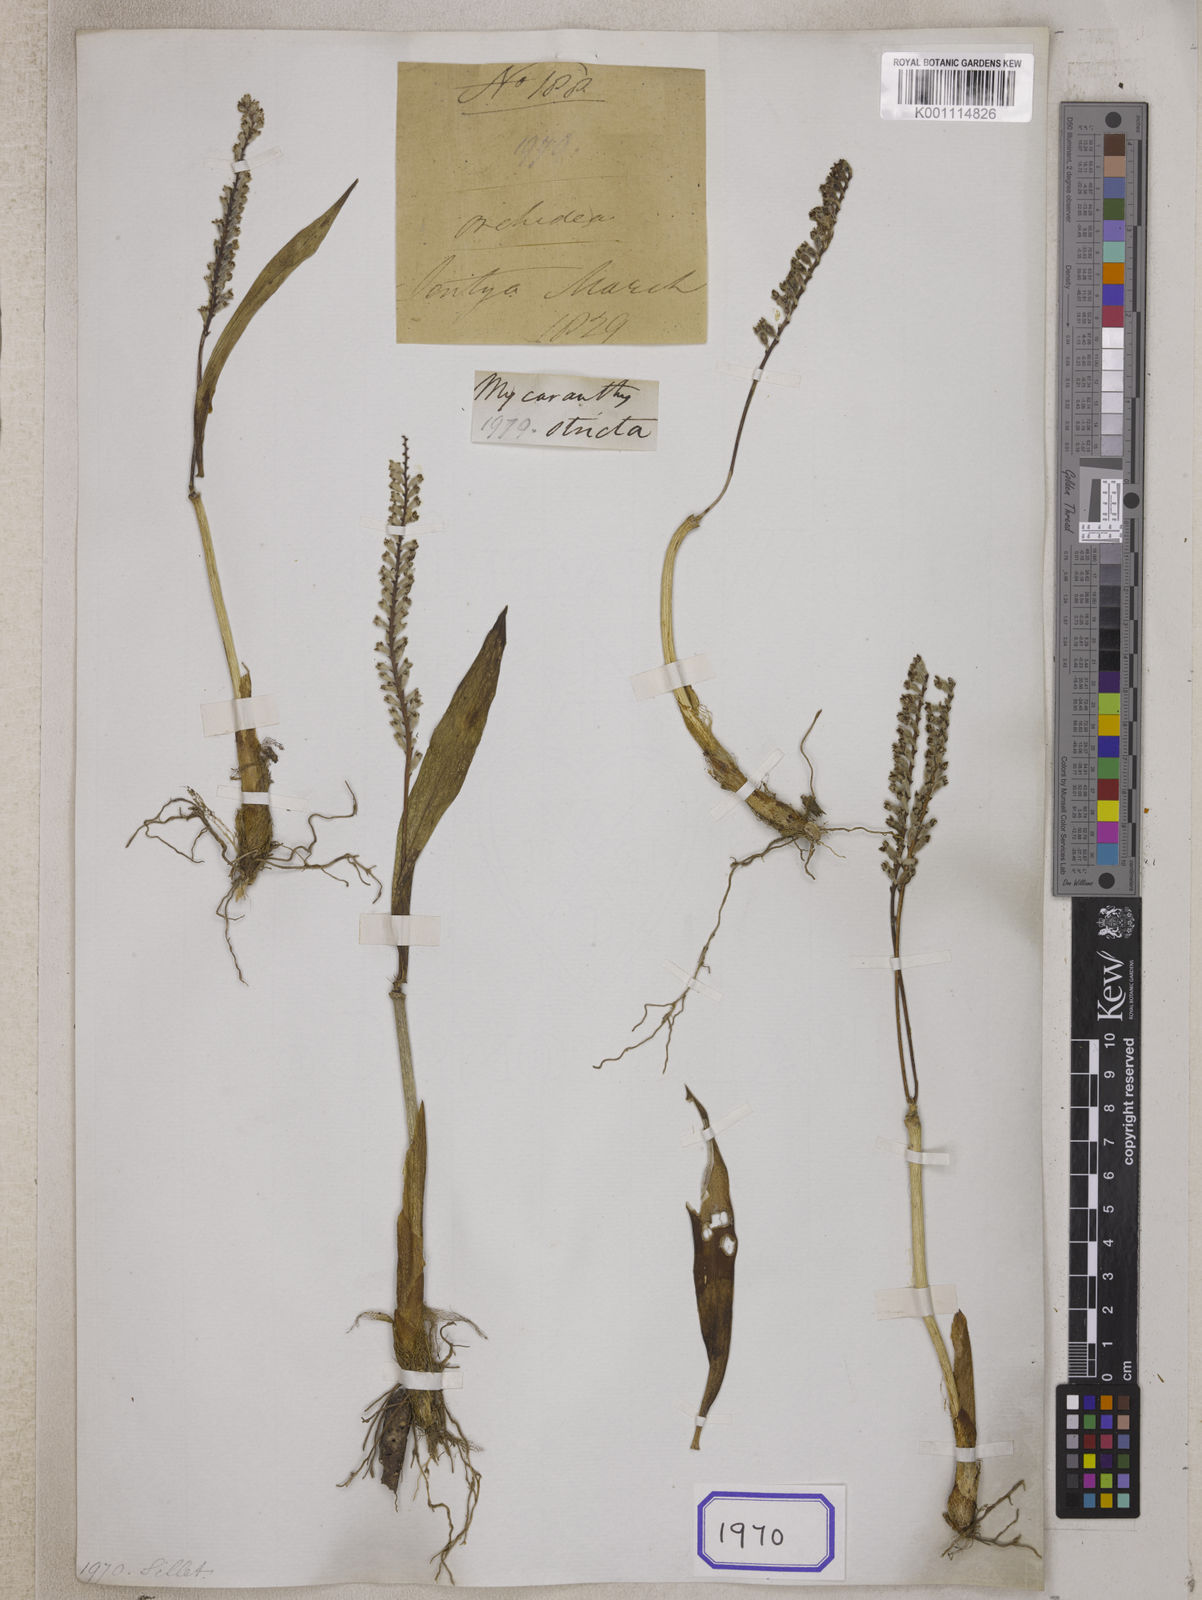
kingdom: Plantae
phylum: Tracheophyta
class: Liliopsida
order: Asparagales
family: Orchidaceae
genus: Mycaranthes
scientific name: Mycaranthes
